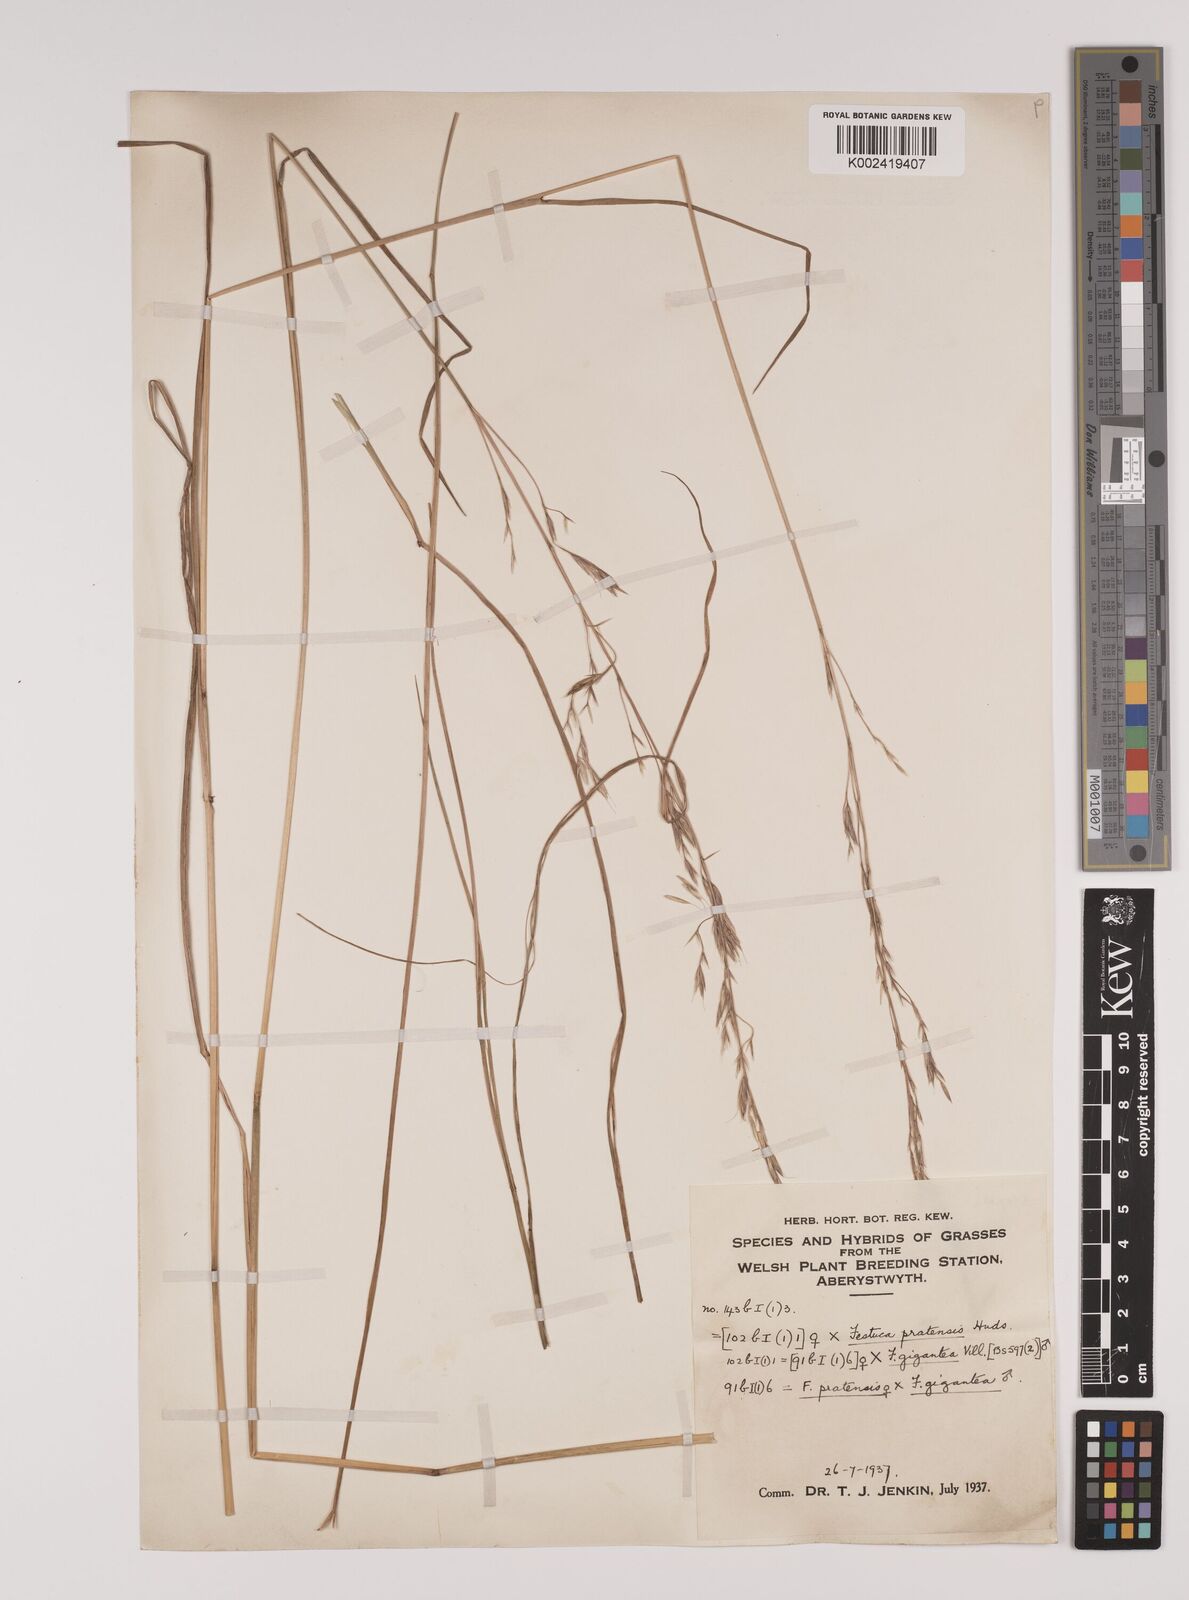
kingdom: Plantae
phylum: Tracheophyta
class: Liliopsida
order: Poales
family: Poaceae
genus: Lolium
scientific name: Lolium giganteum
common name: Giant fescue
